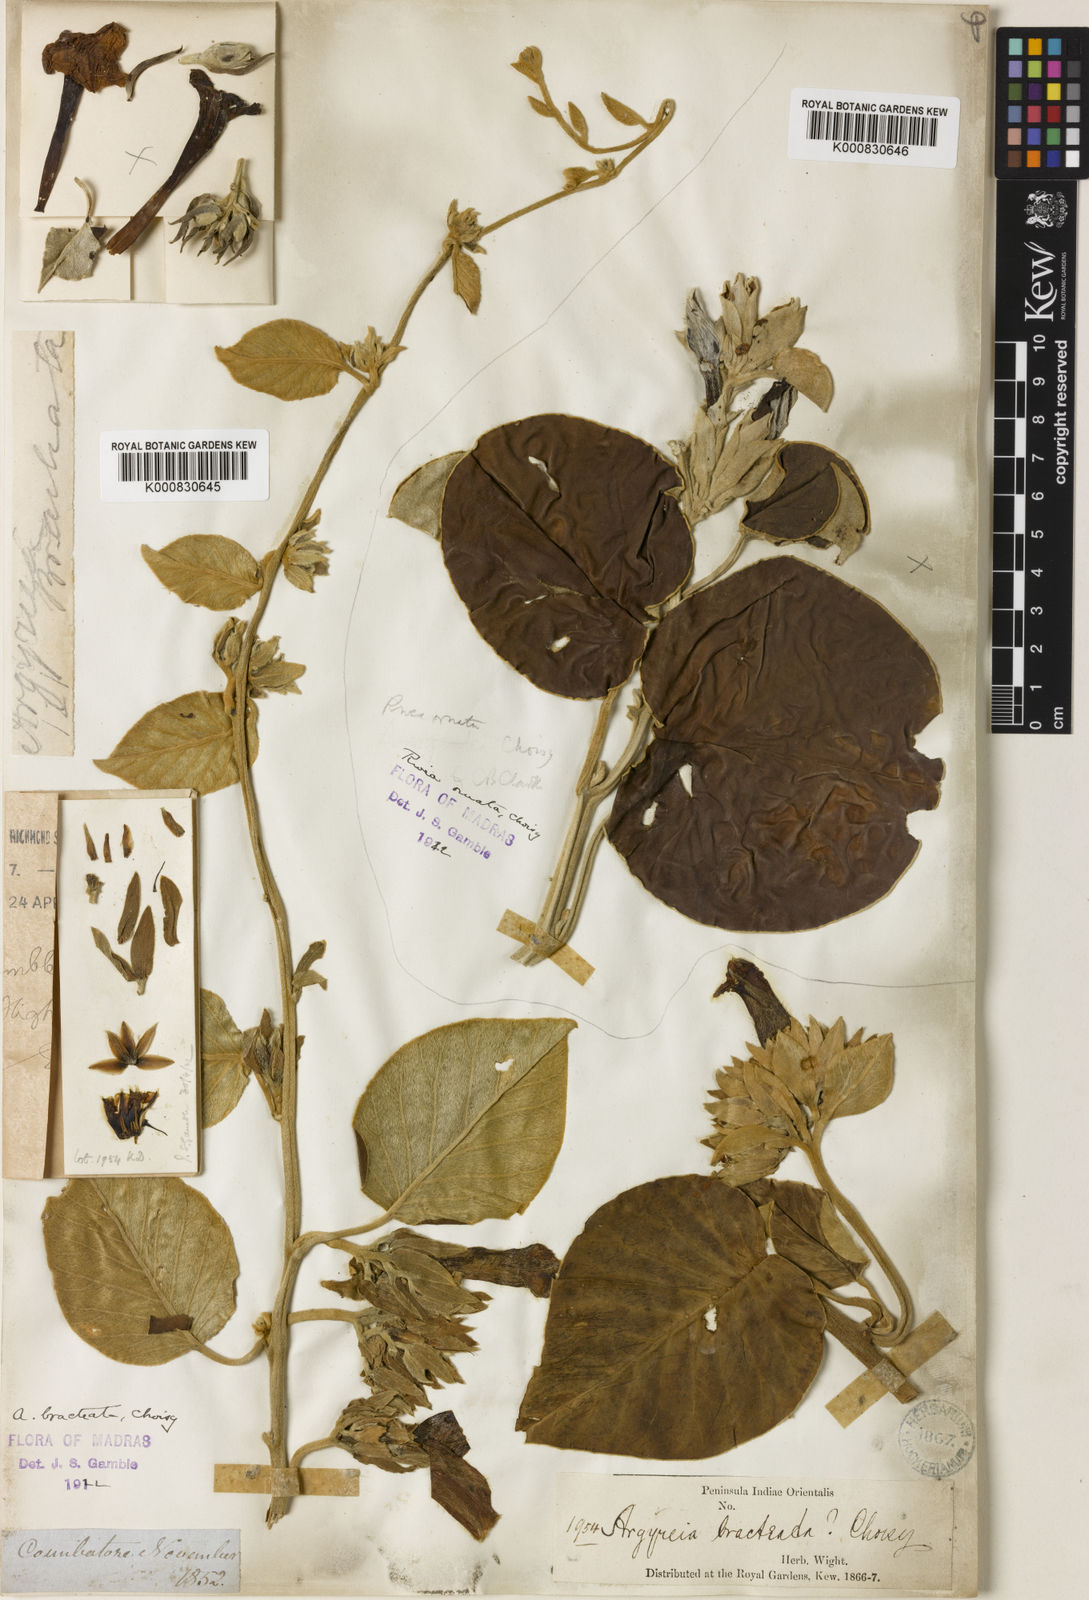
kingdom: Plantae
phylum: Tracheophyta
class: Magnoliopsida
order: Solanales
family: Convolvulaceae
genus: Argyreia
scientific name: Argyreia bracteata
